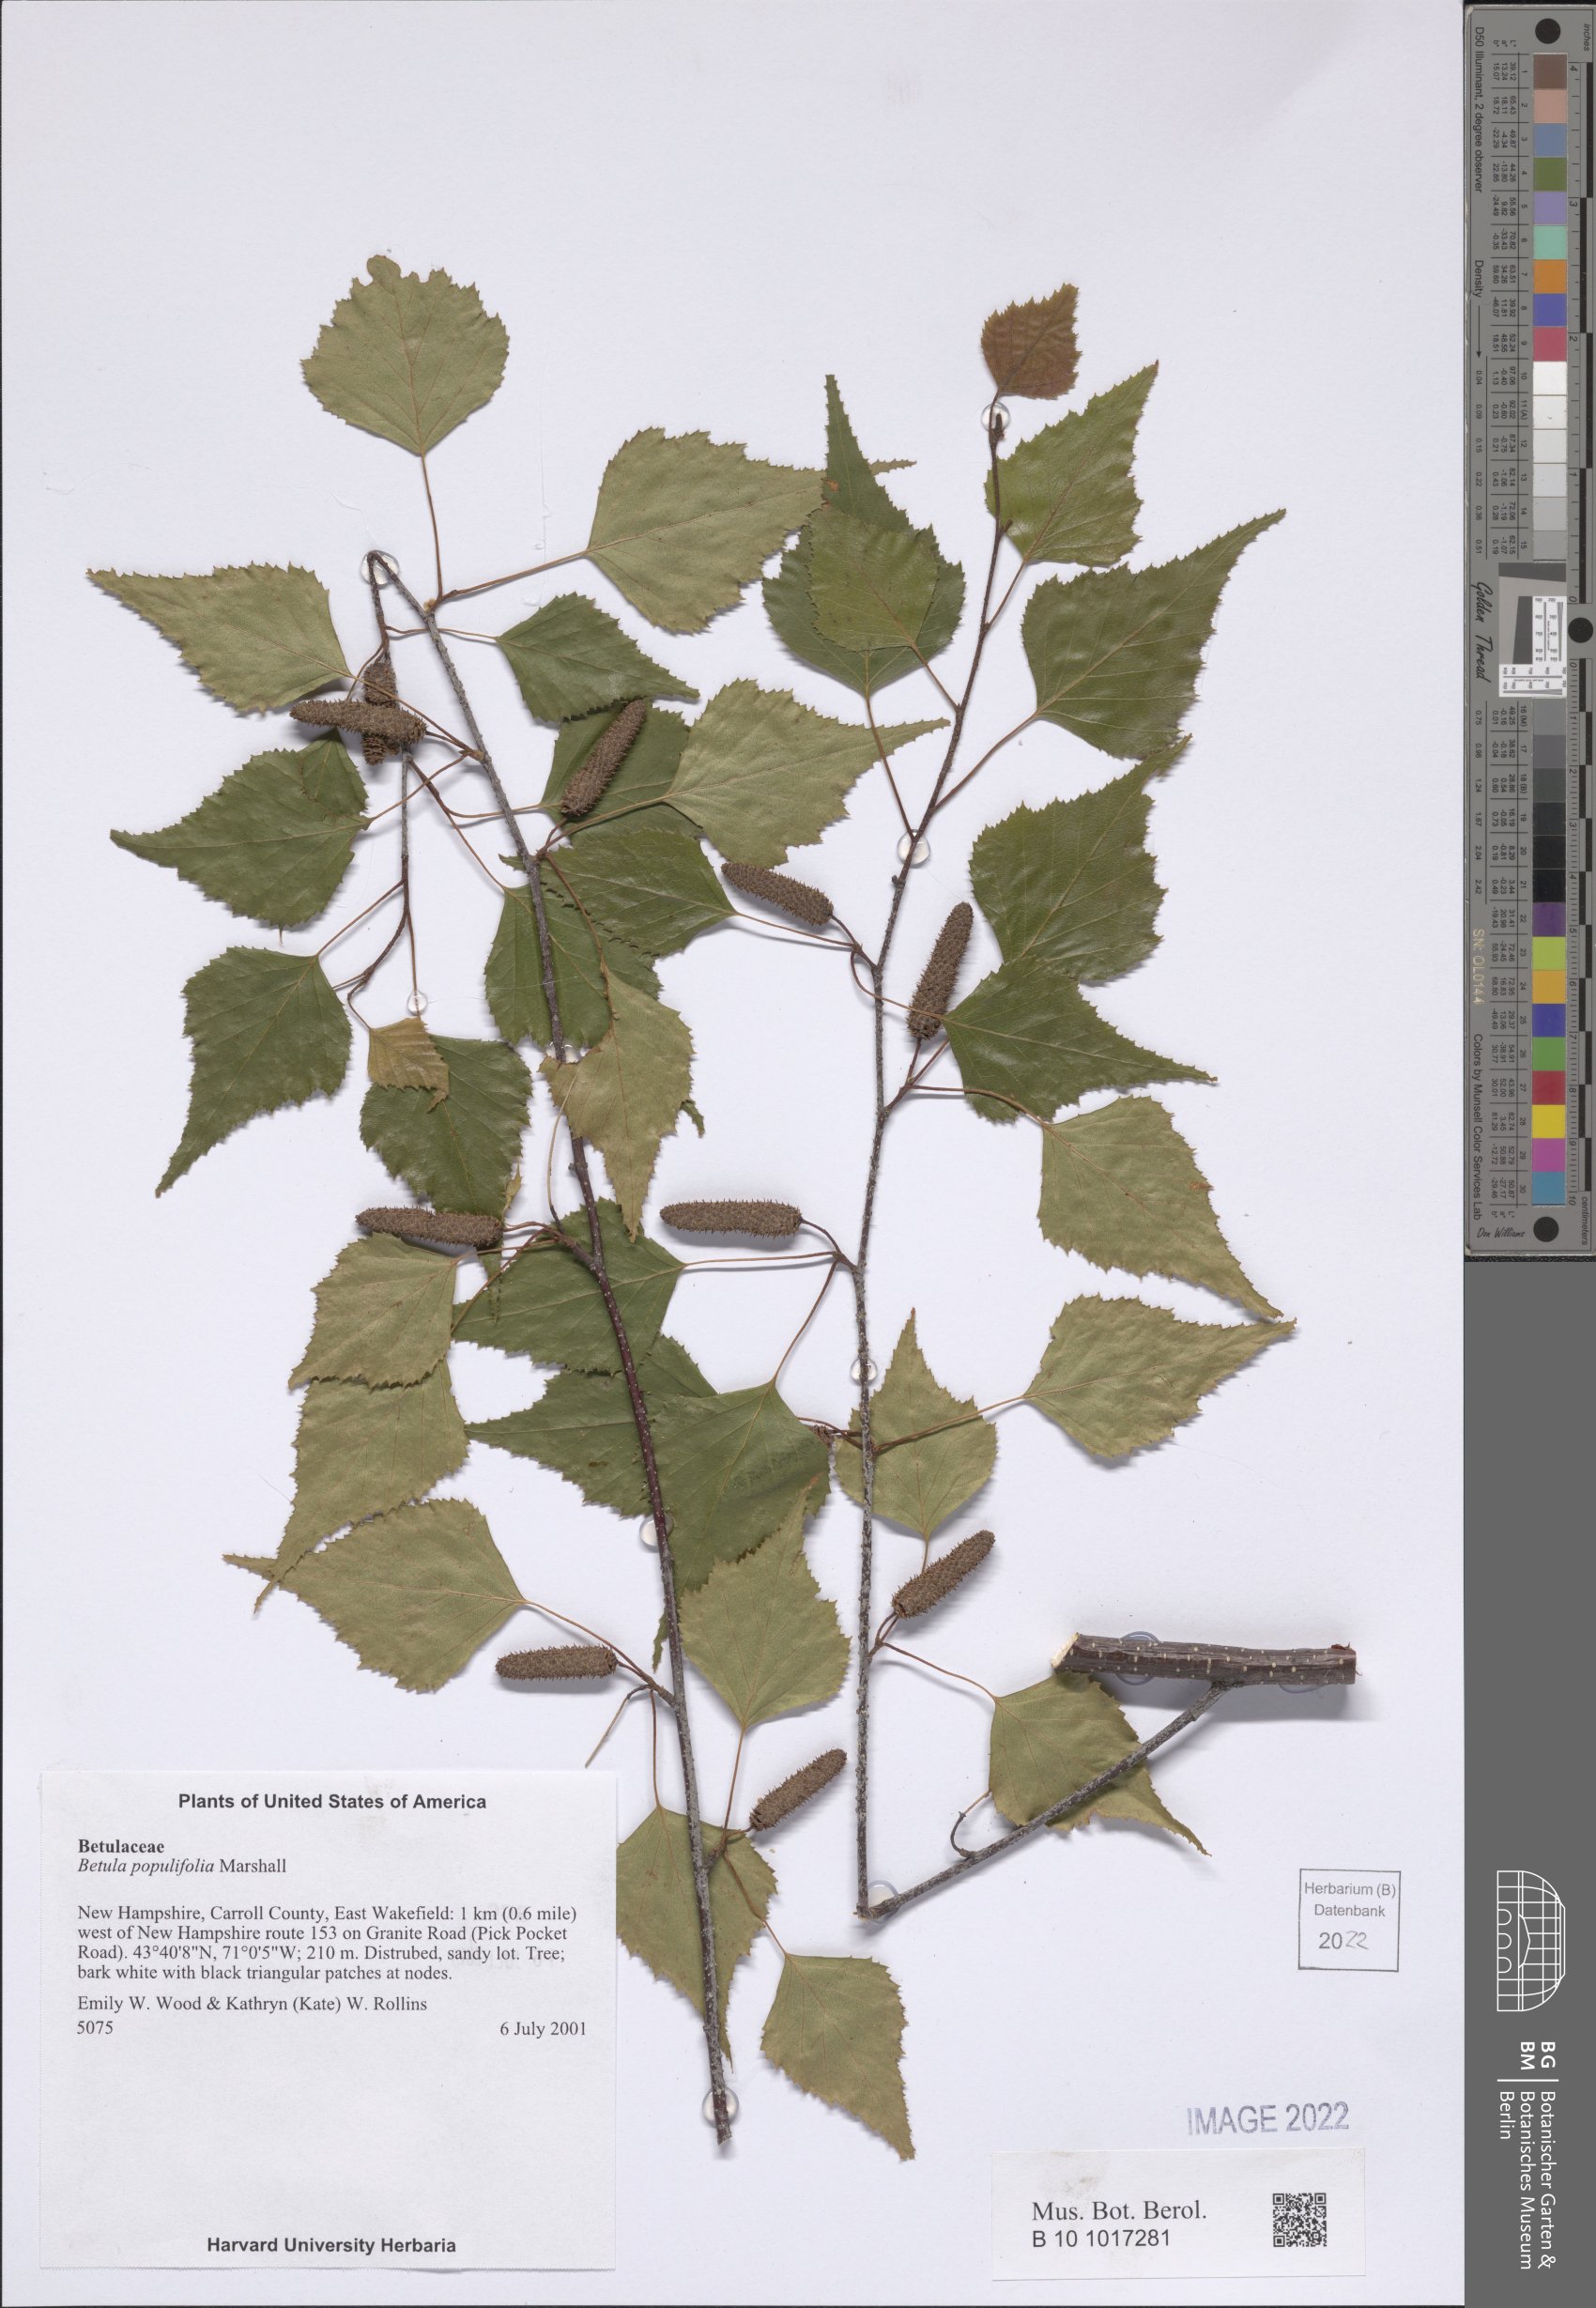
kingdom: Plantae
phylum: Tracheophyta
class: Magnoliopsida
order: Fagales
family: Betulaceae
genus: Betula
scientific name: Betula populifolia
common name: Fire birch
